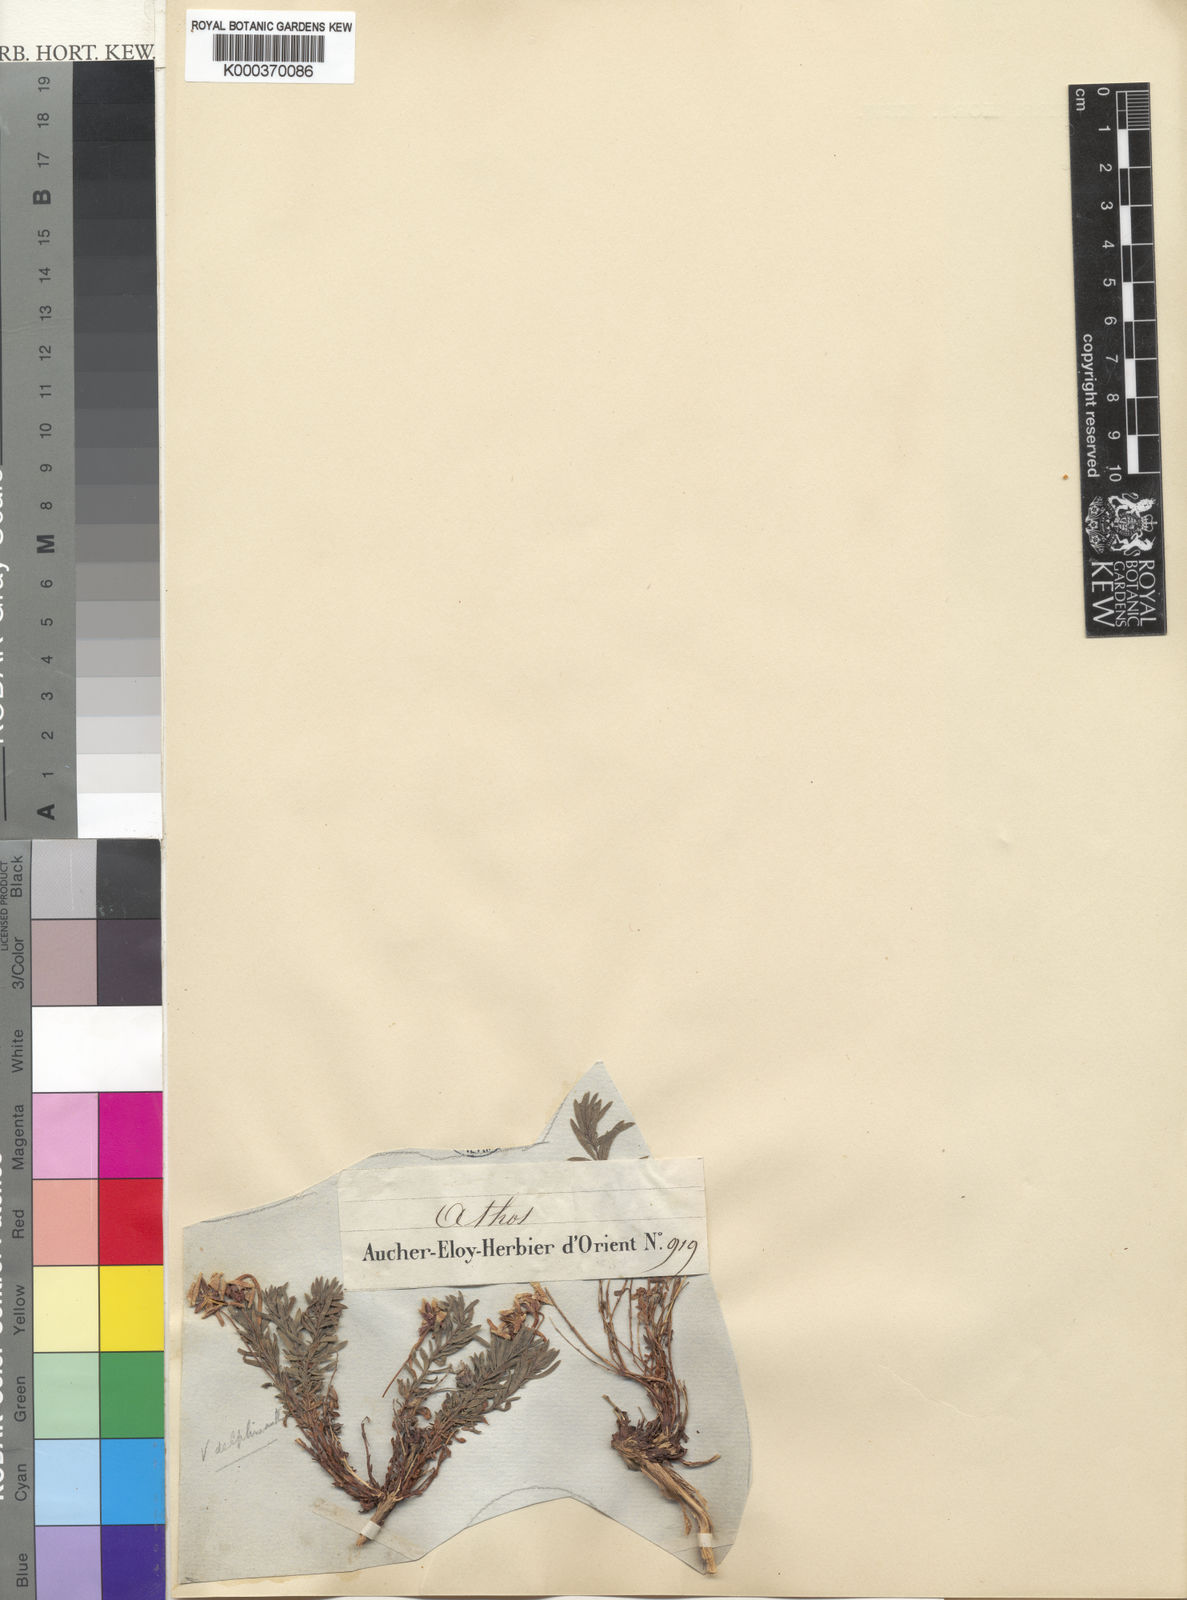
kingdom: Plantae
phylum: Tracheophyta
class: Magnoliopsida
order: Malpighiales
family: Violaceae
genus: Viola
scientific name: Viola delphinantha
